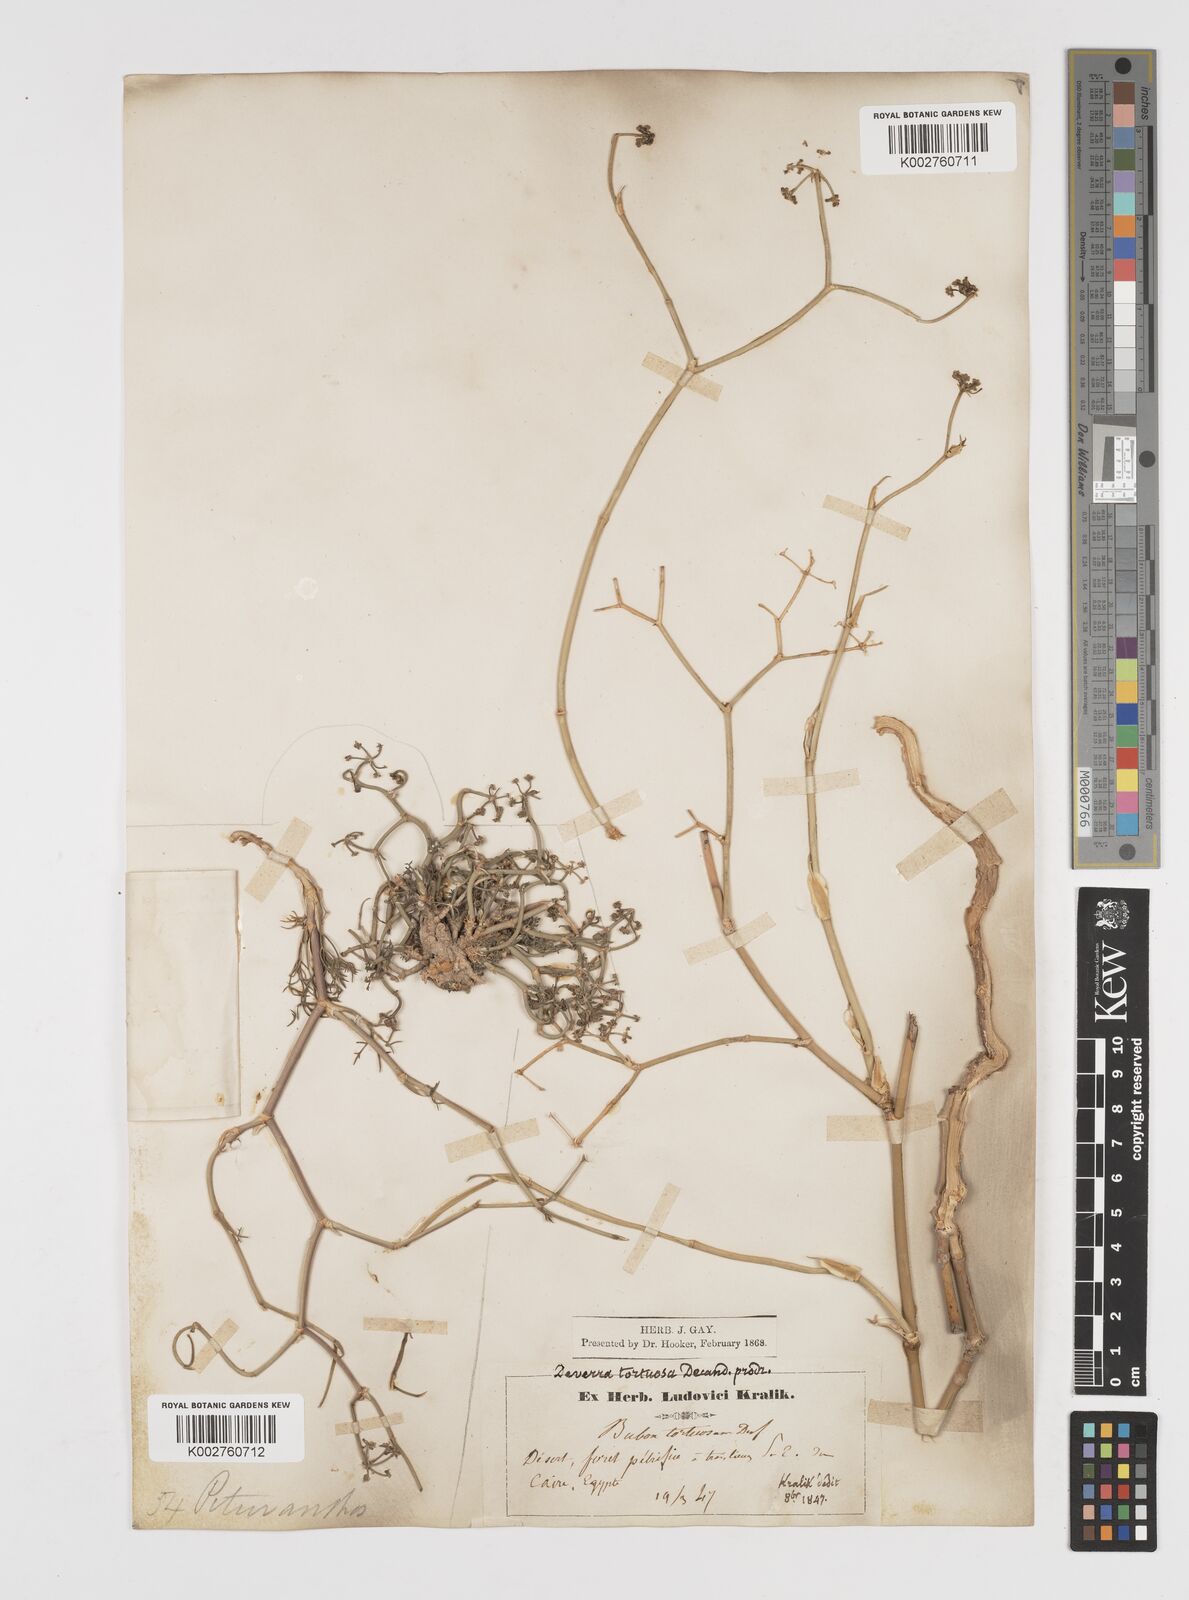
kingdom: Plantae
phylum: Tracheophyta
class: Magnoliopsida
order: Apiales
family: Apiaceae
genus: Deverra
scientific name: Deverra denudata
